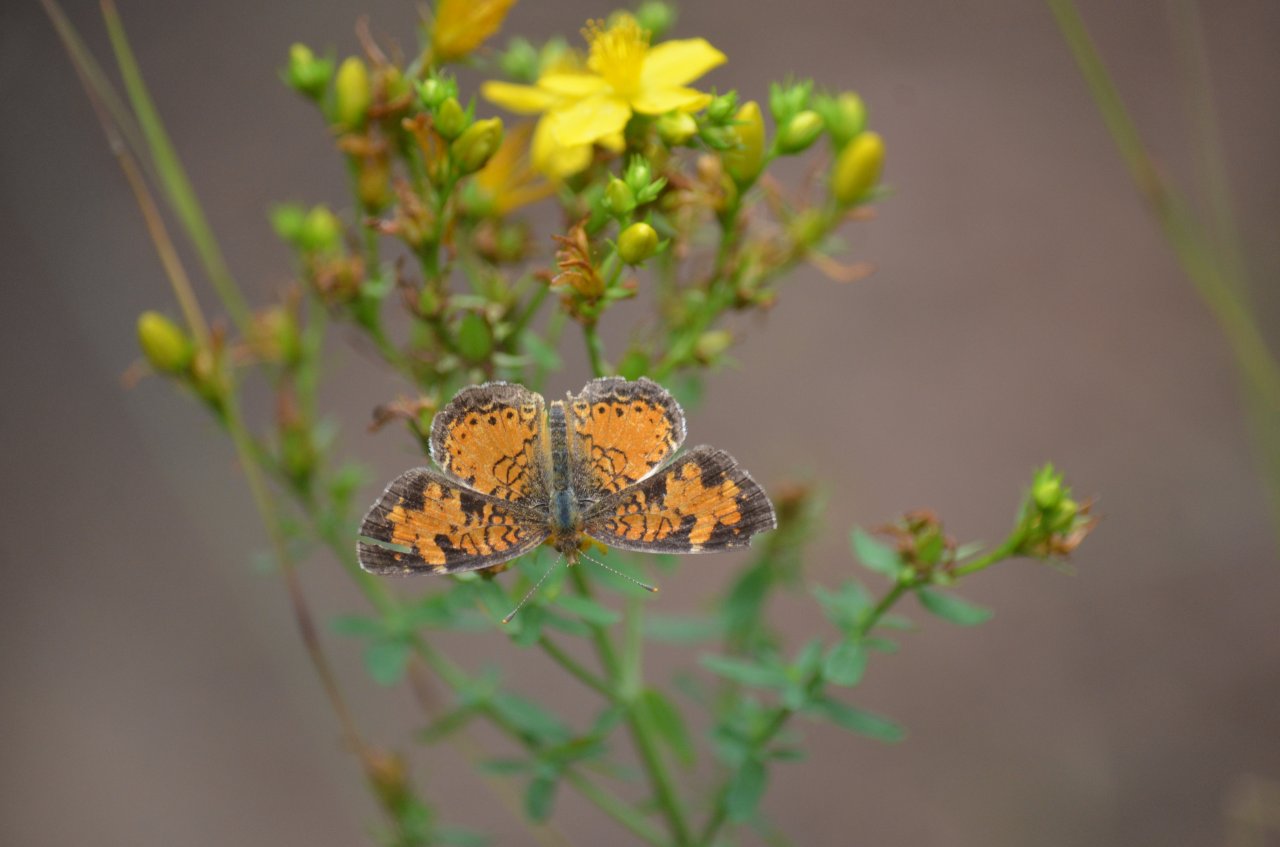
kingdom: Animalia
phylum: Arthropoda
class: Insecta
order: Lepidoptera
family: Nymphalidae
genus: Phyciodes
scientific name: Phyciodes tharos
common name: Northern Crescent
